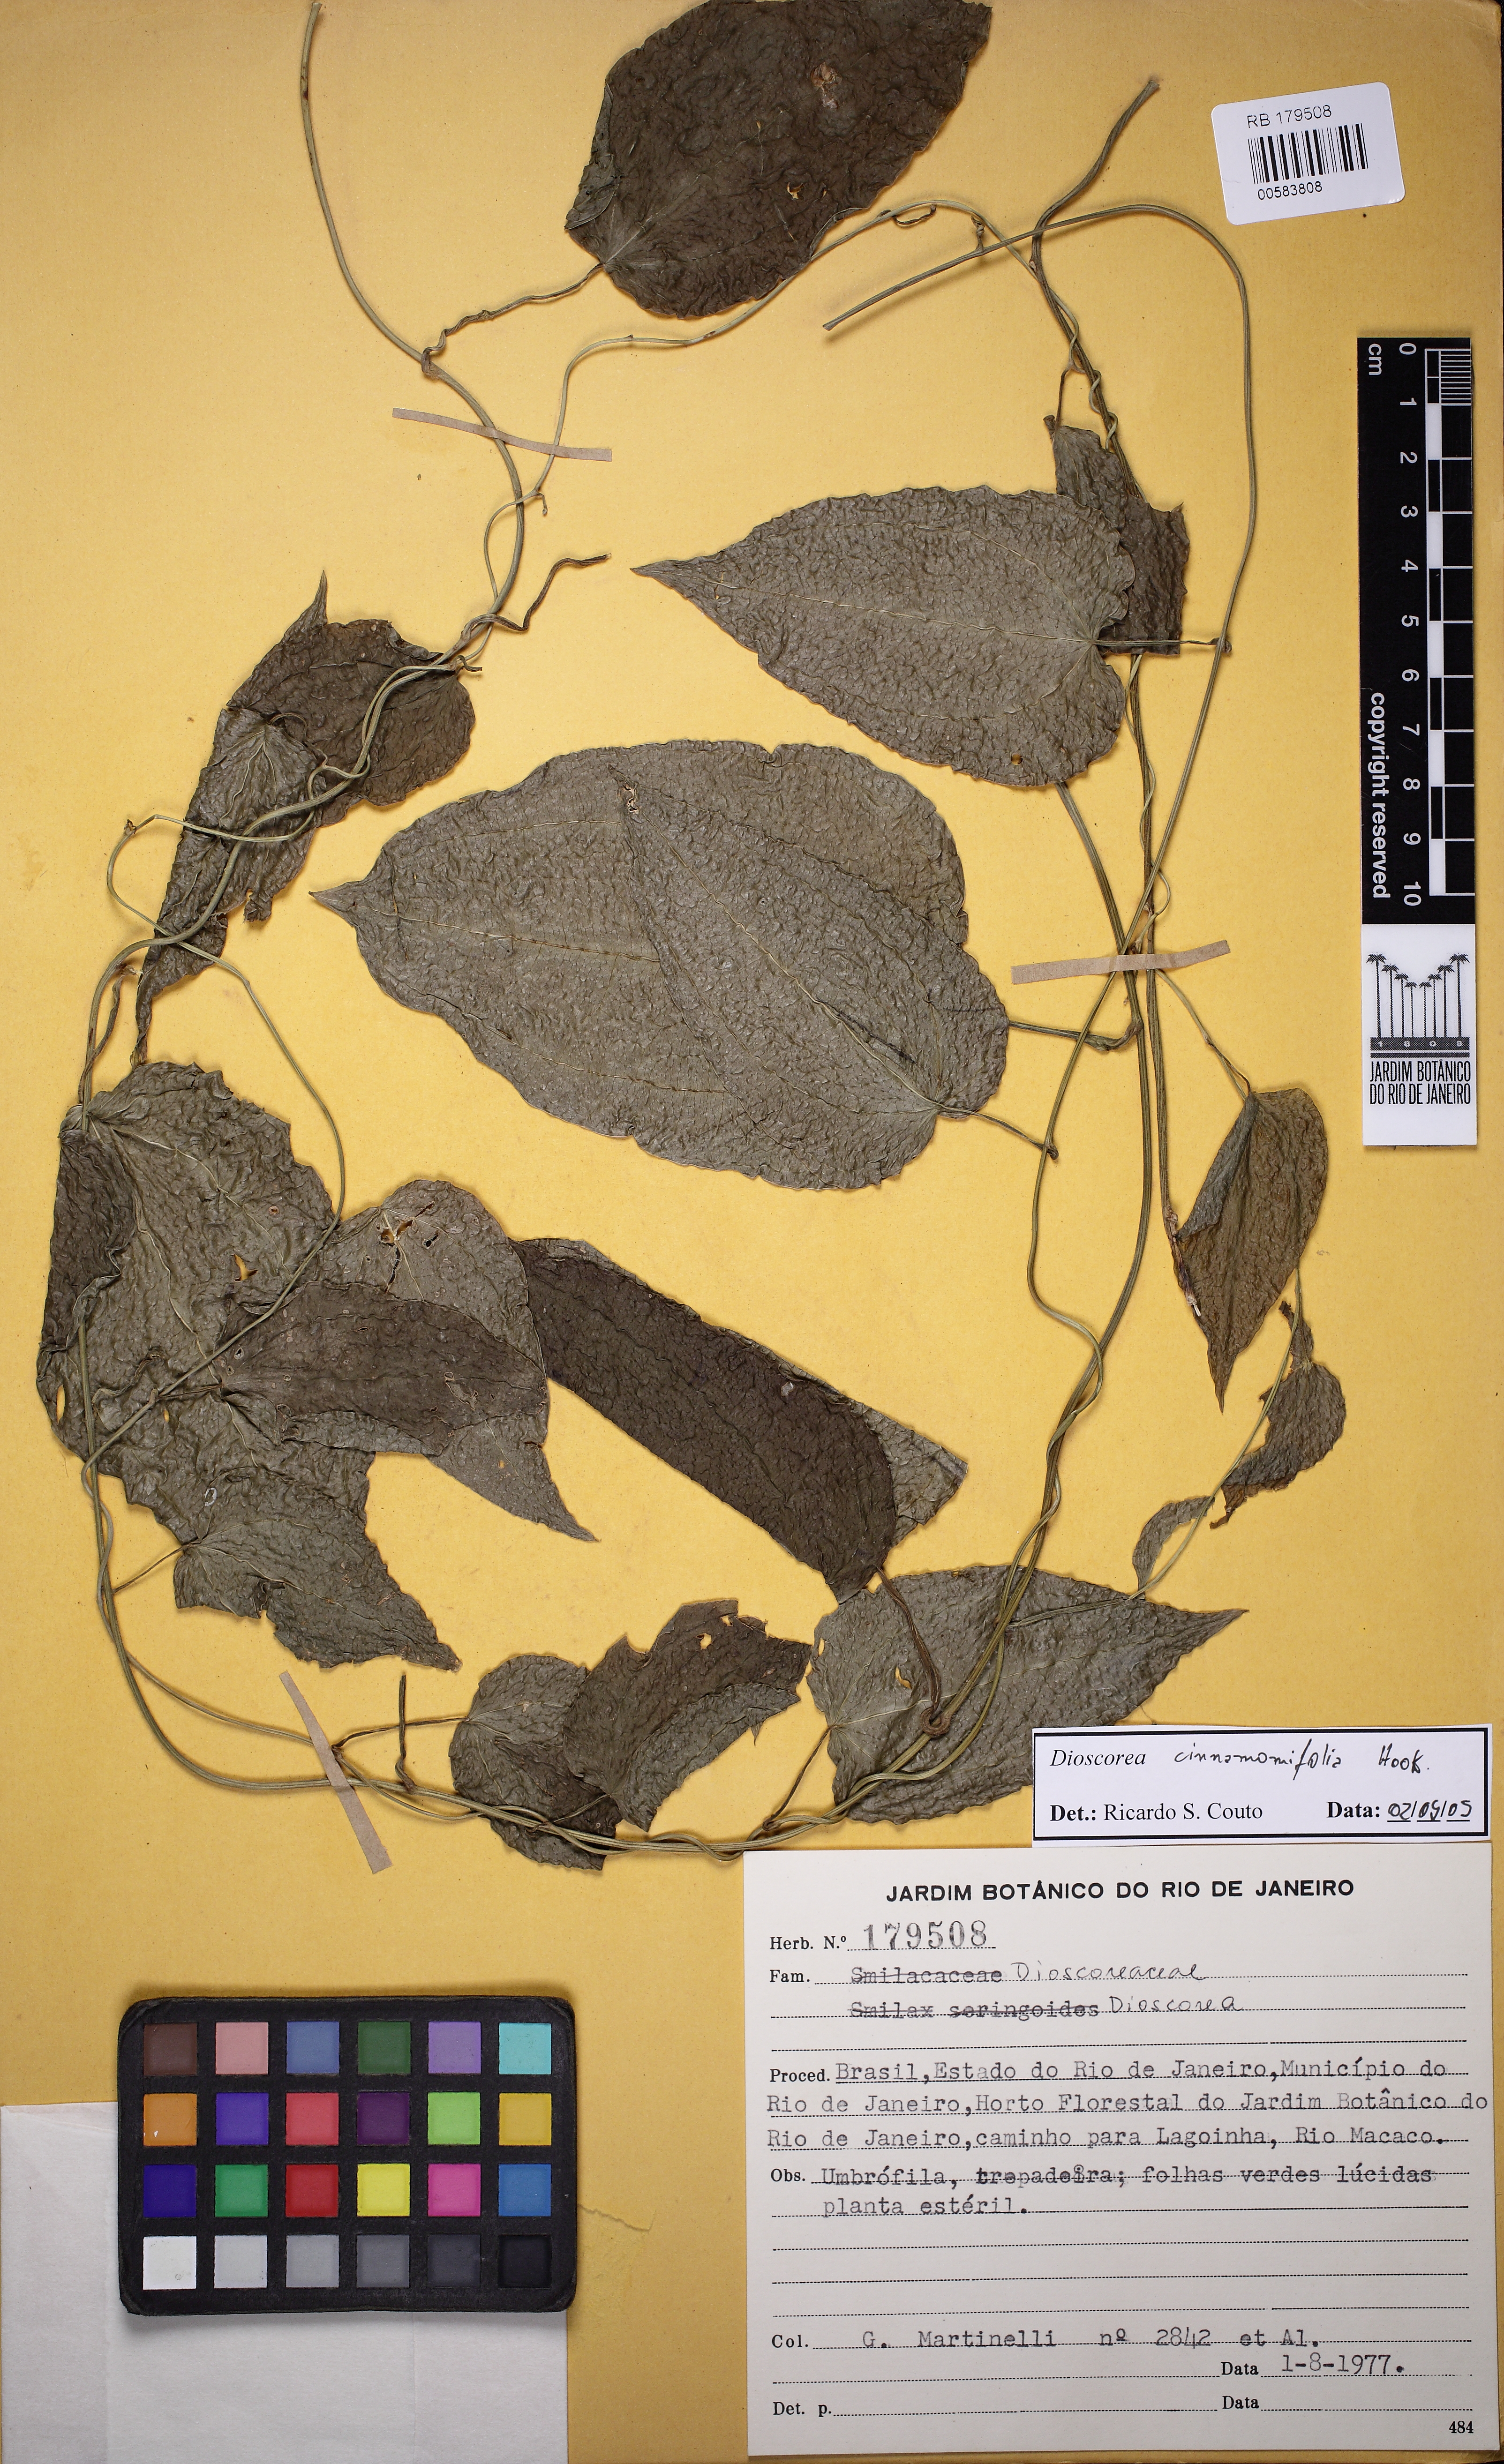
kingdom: Plantae
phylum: Tracheophyta
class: Liliopsida
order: Dioscoreales
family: Dioscoreaceae
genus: Dioscorea
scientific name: Dioscorea cinnamomifolia
